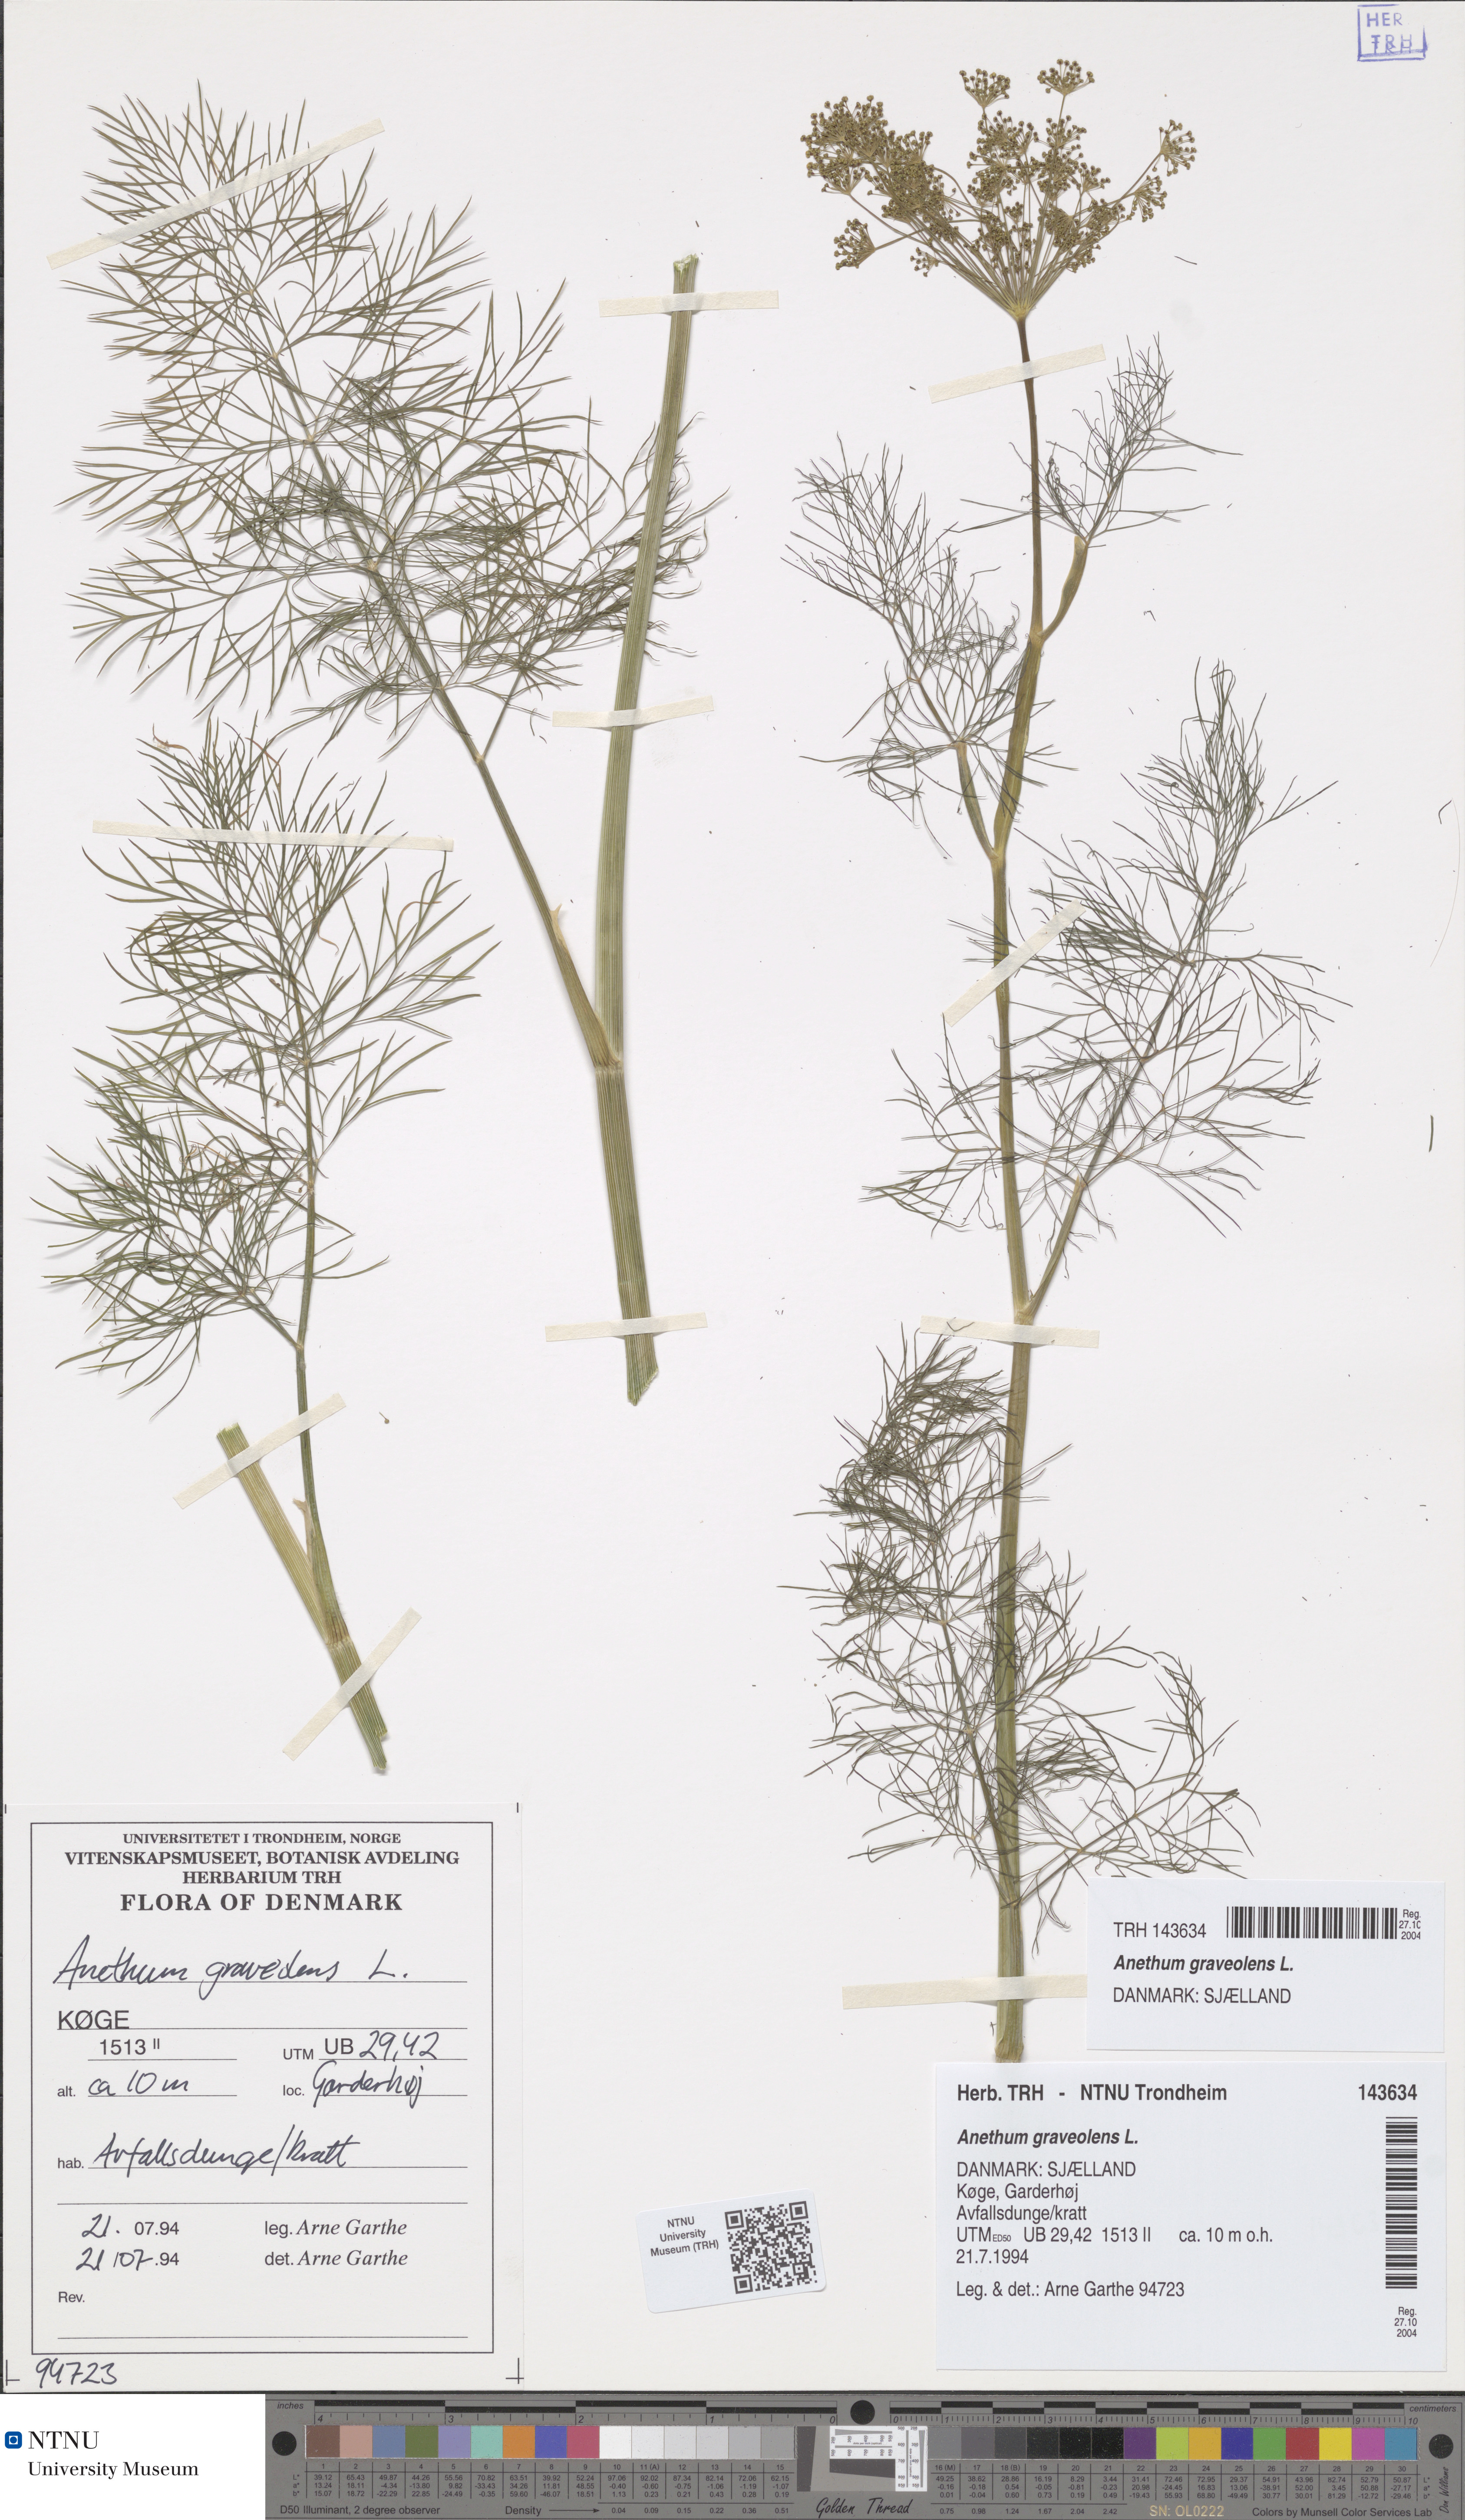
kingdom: Plantae
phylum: Tracheophyta
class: Magnoliopsida
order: Apiales
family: Apiaceae
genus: Anethum
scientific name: Anethum graveolens
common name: Dill
